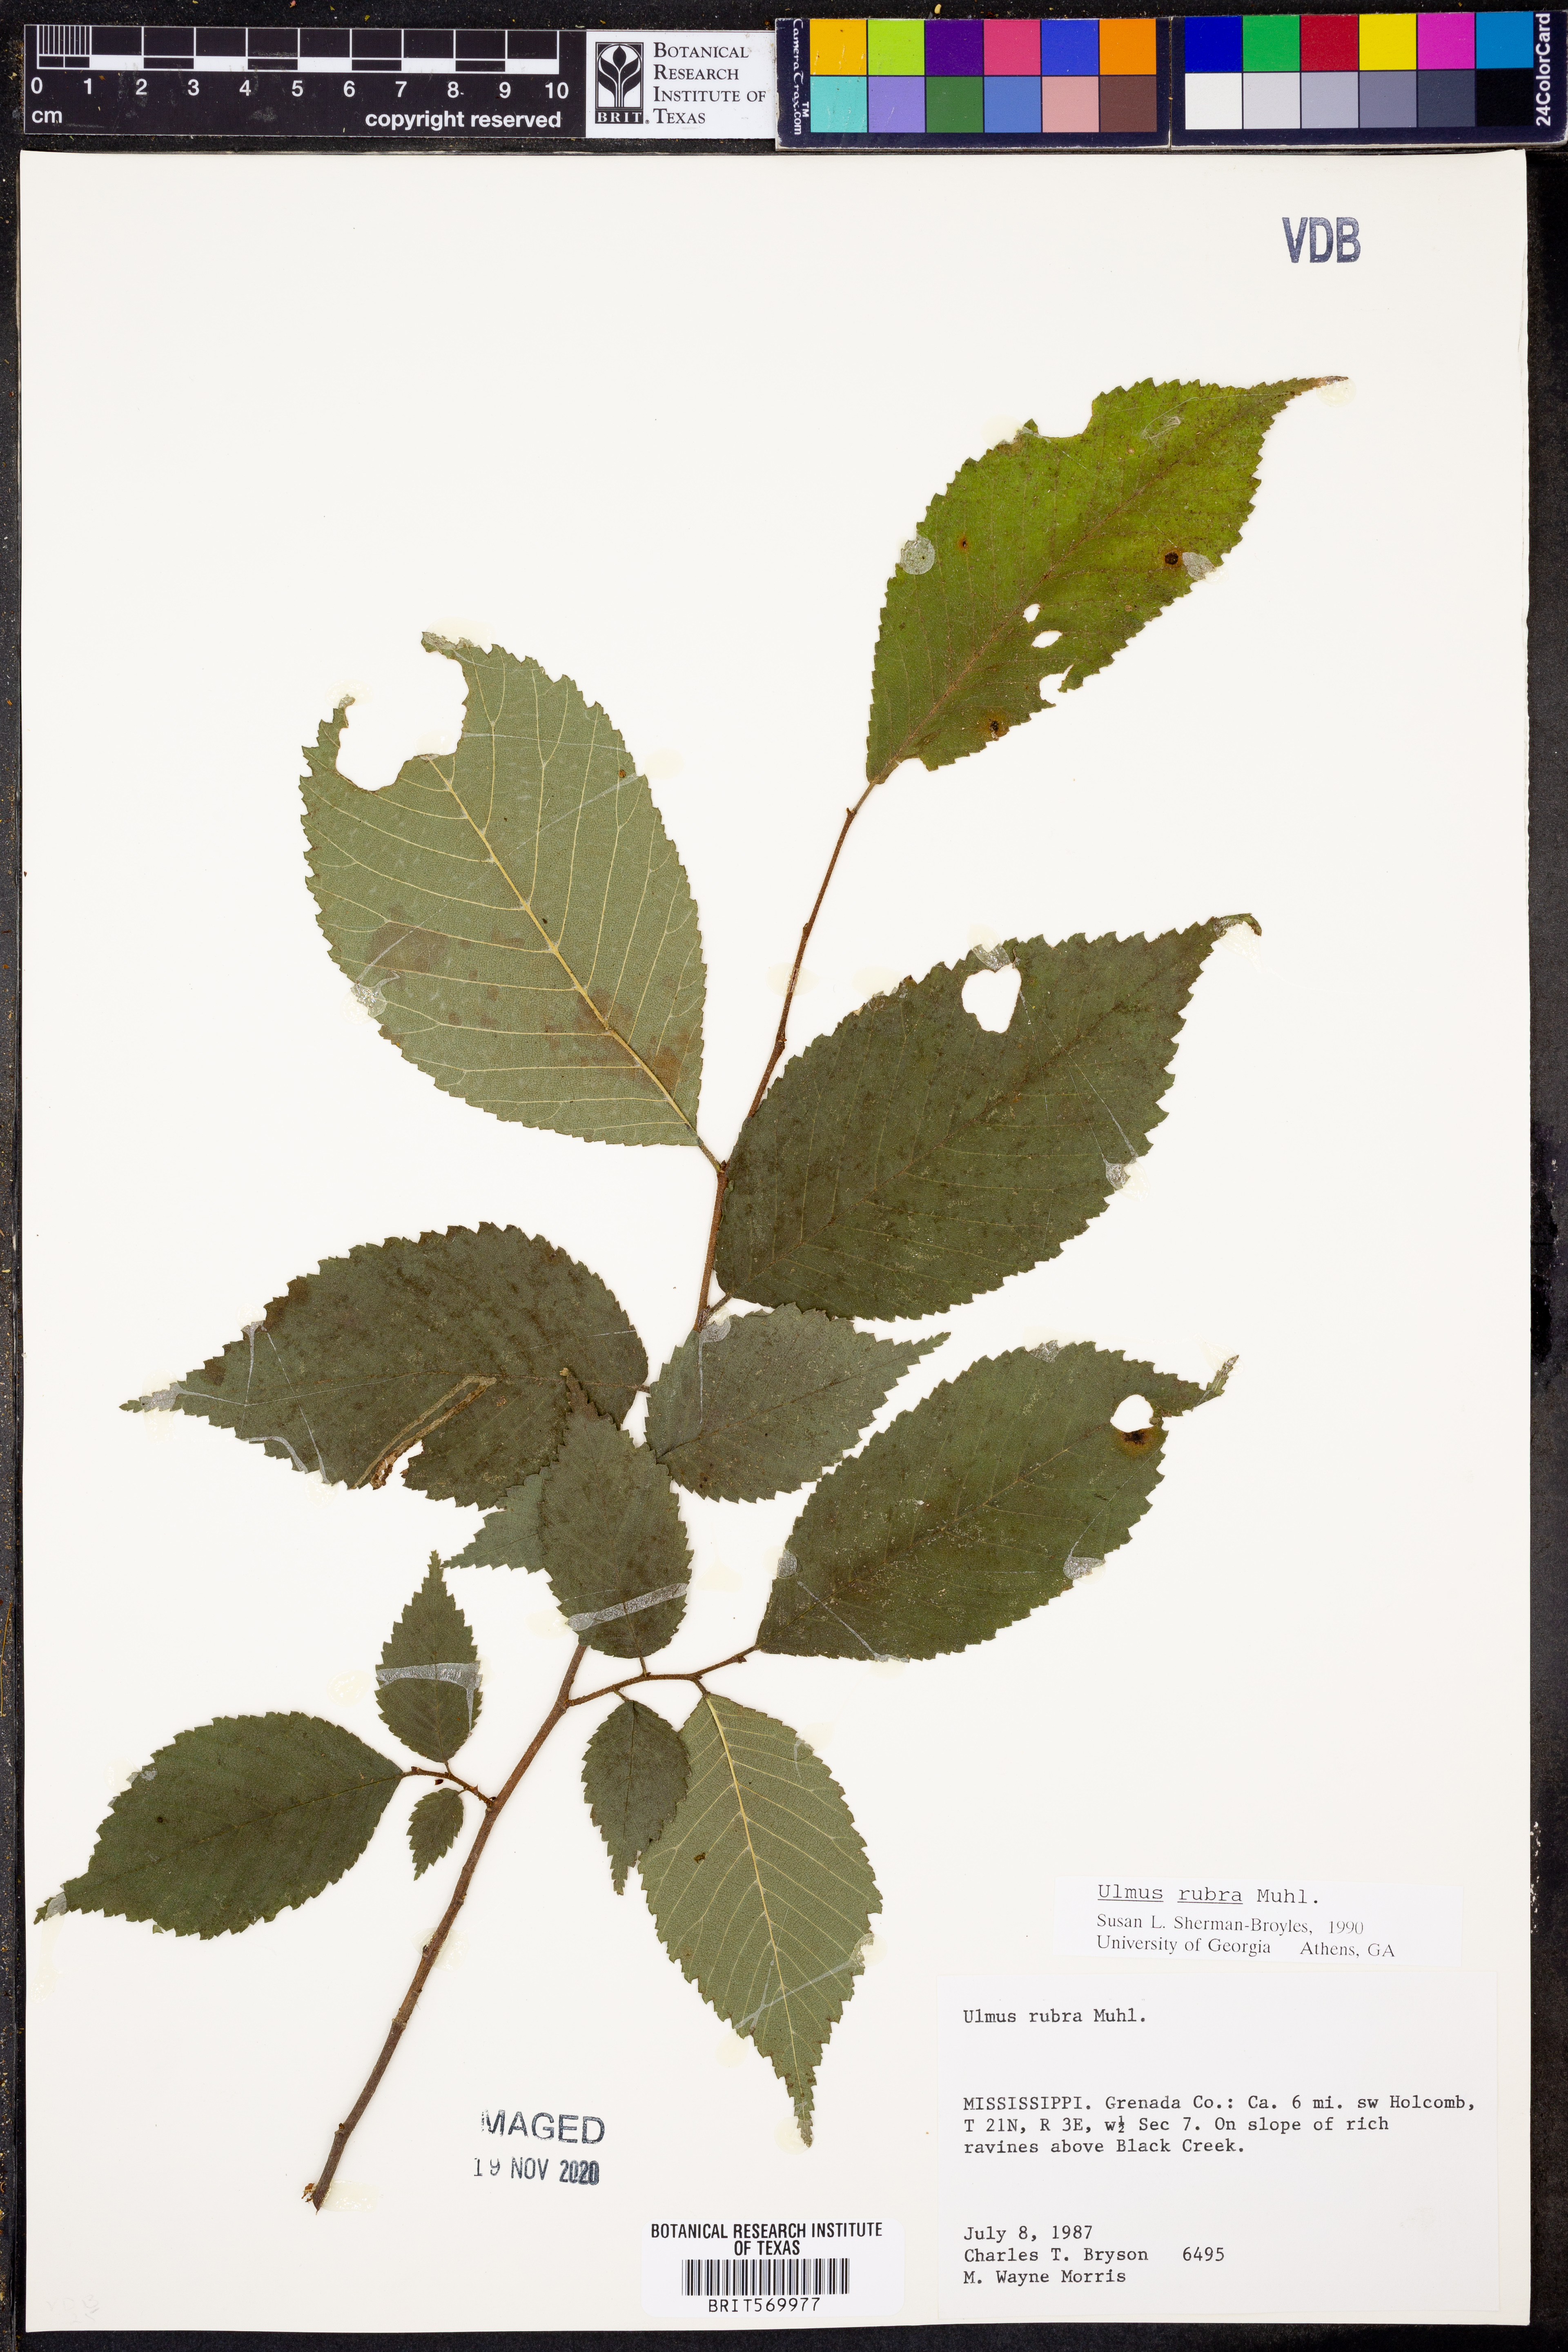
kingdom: Plantae
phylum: Tracheophyta
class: Magnoliopsida
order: Rosales
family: Ulmaceae
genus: Ulmus
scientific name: Ulmus rubra
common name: Slippery elm
